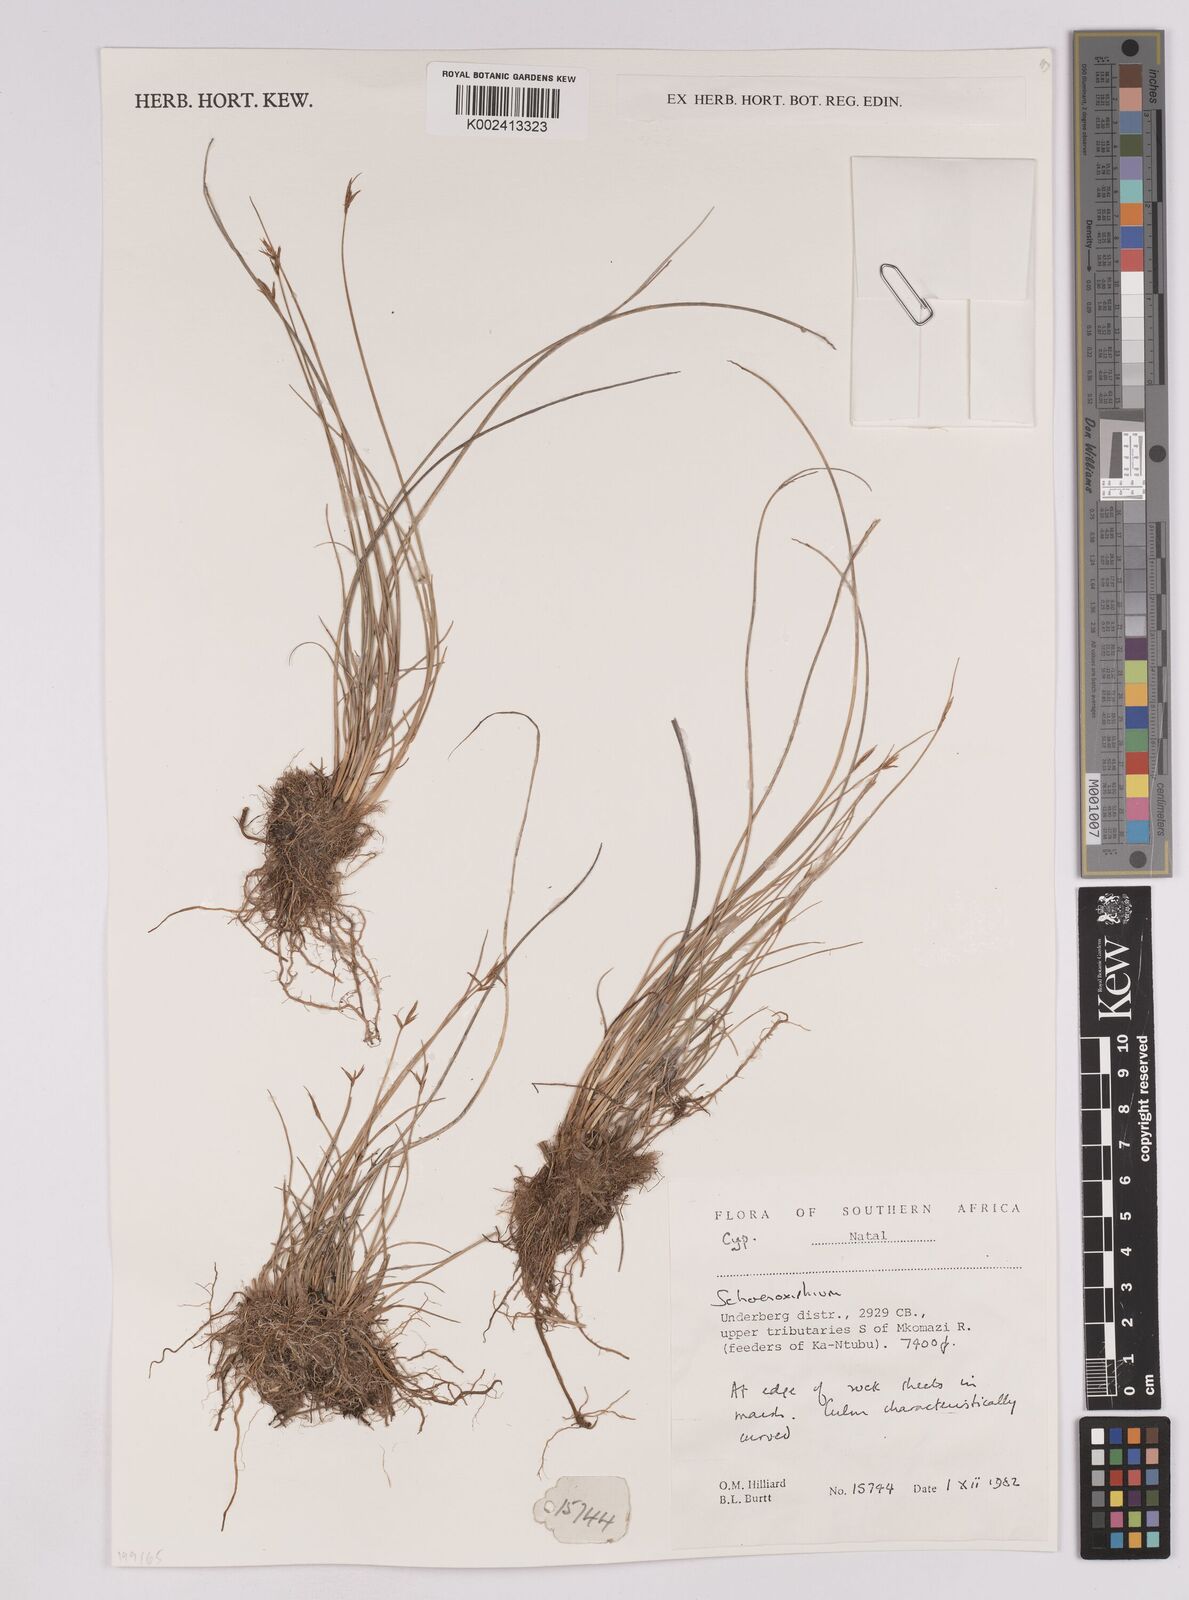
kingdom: Plantae
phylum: Tracheophyta
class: Liliopsida
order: Poales
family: Cyperaceae
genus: Carex
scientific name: Carex
